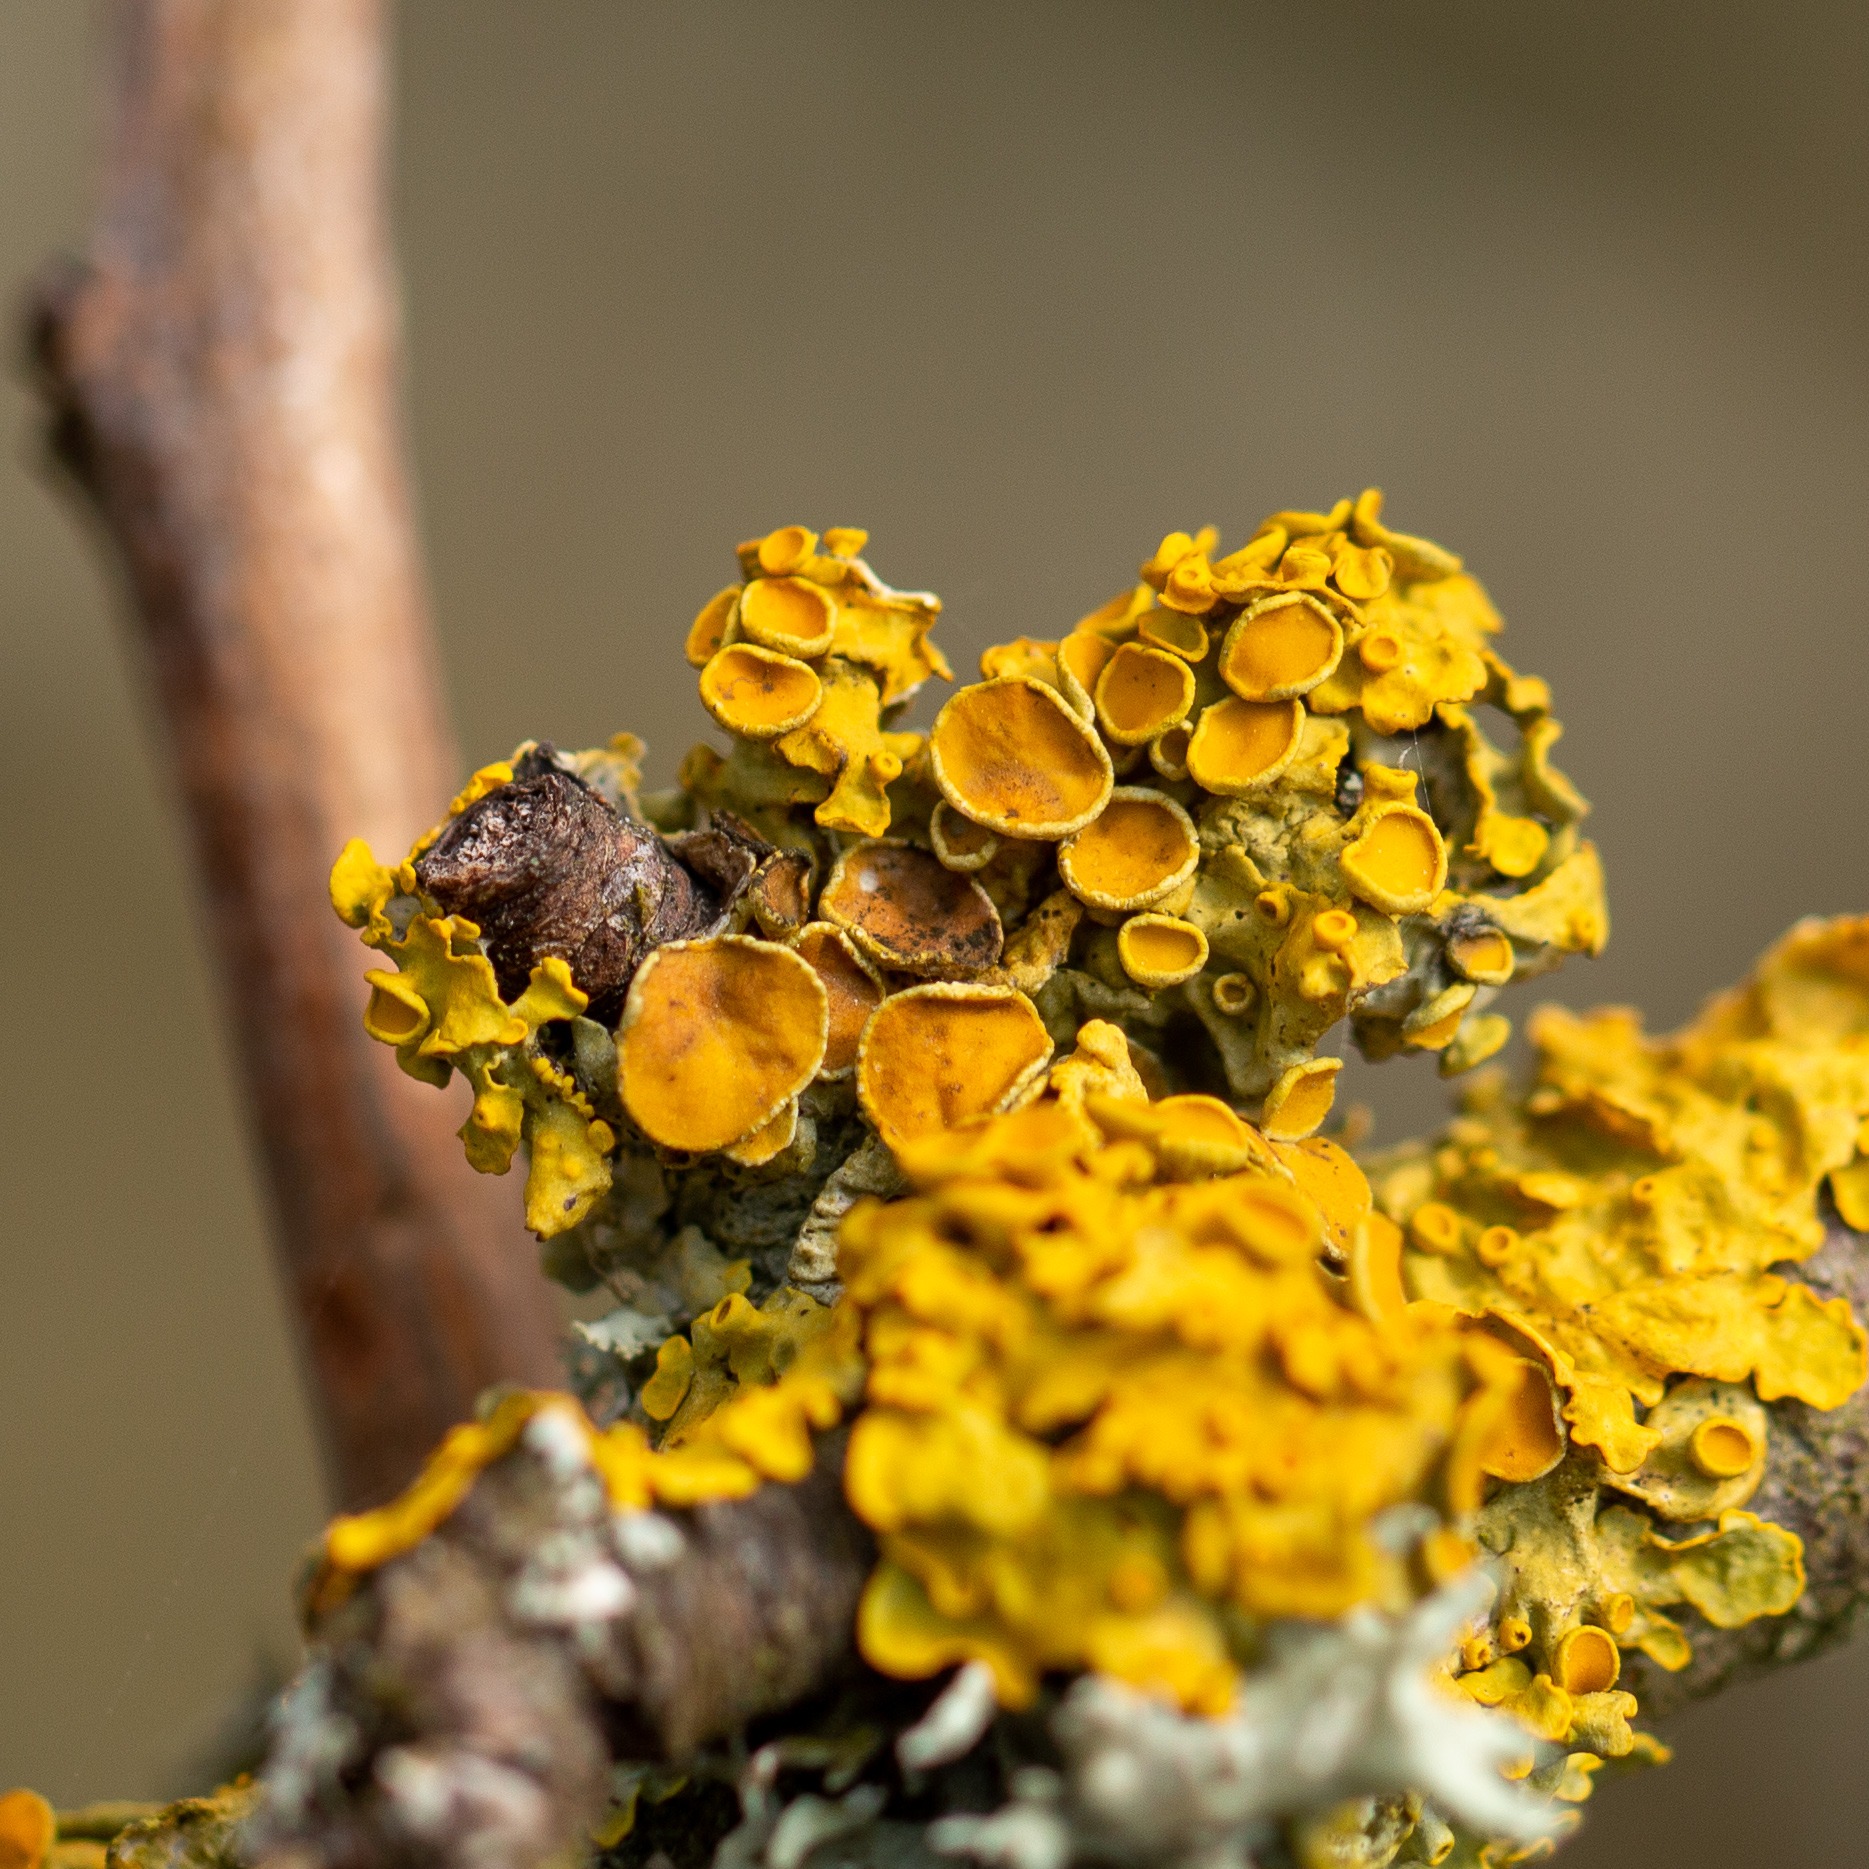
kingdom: Fungi
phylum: Ascomycota
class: Lecanoromycetes
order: Teloschistales
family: Teloschistaceae
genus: Xanthoria
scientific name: Xanthoria parietina
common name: Almindelig væggelav
